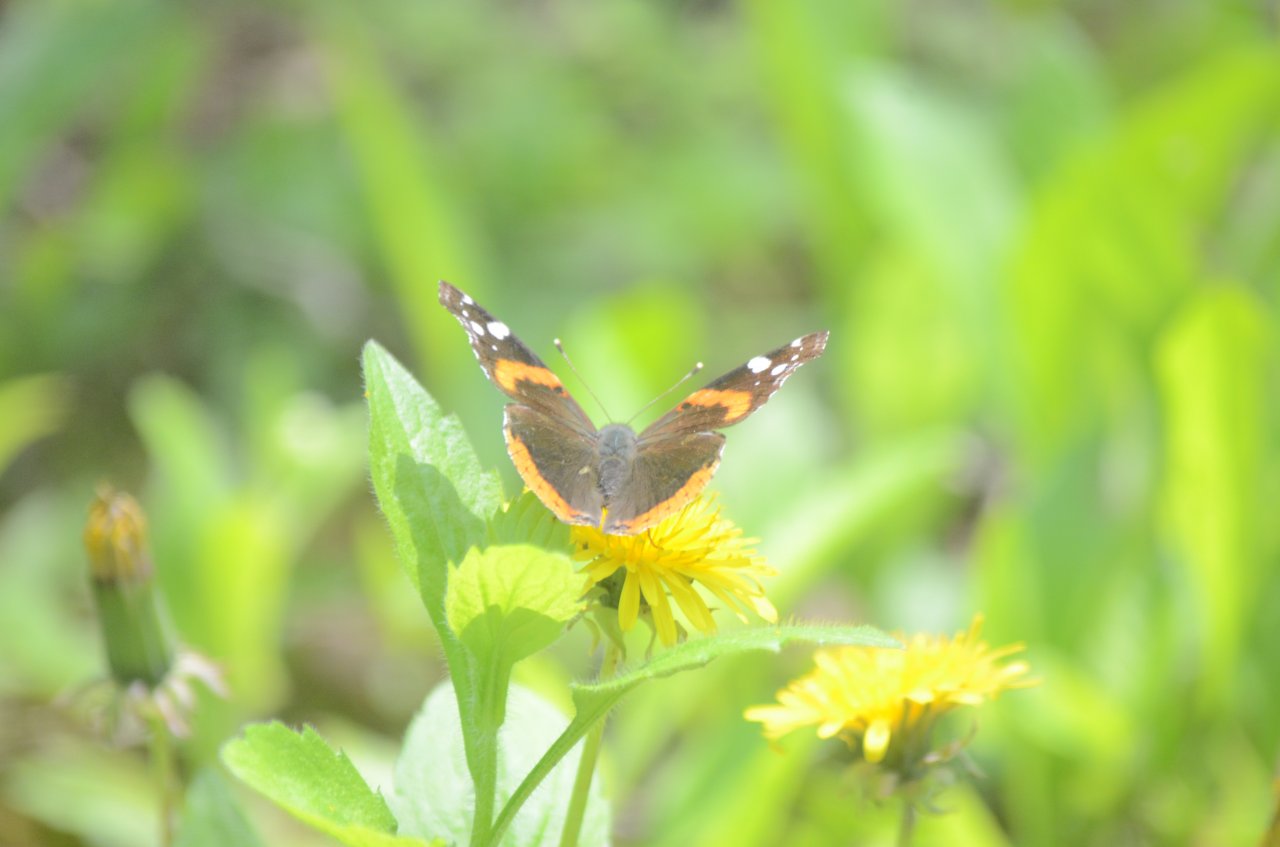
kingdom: Animalia
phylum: Arthropoda
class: Insecta
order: Lepidoptera
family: Nymphalidae
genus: Vanessa
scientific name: Vanessa atalanta
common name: Red Admiral
